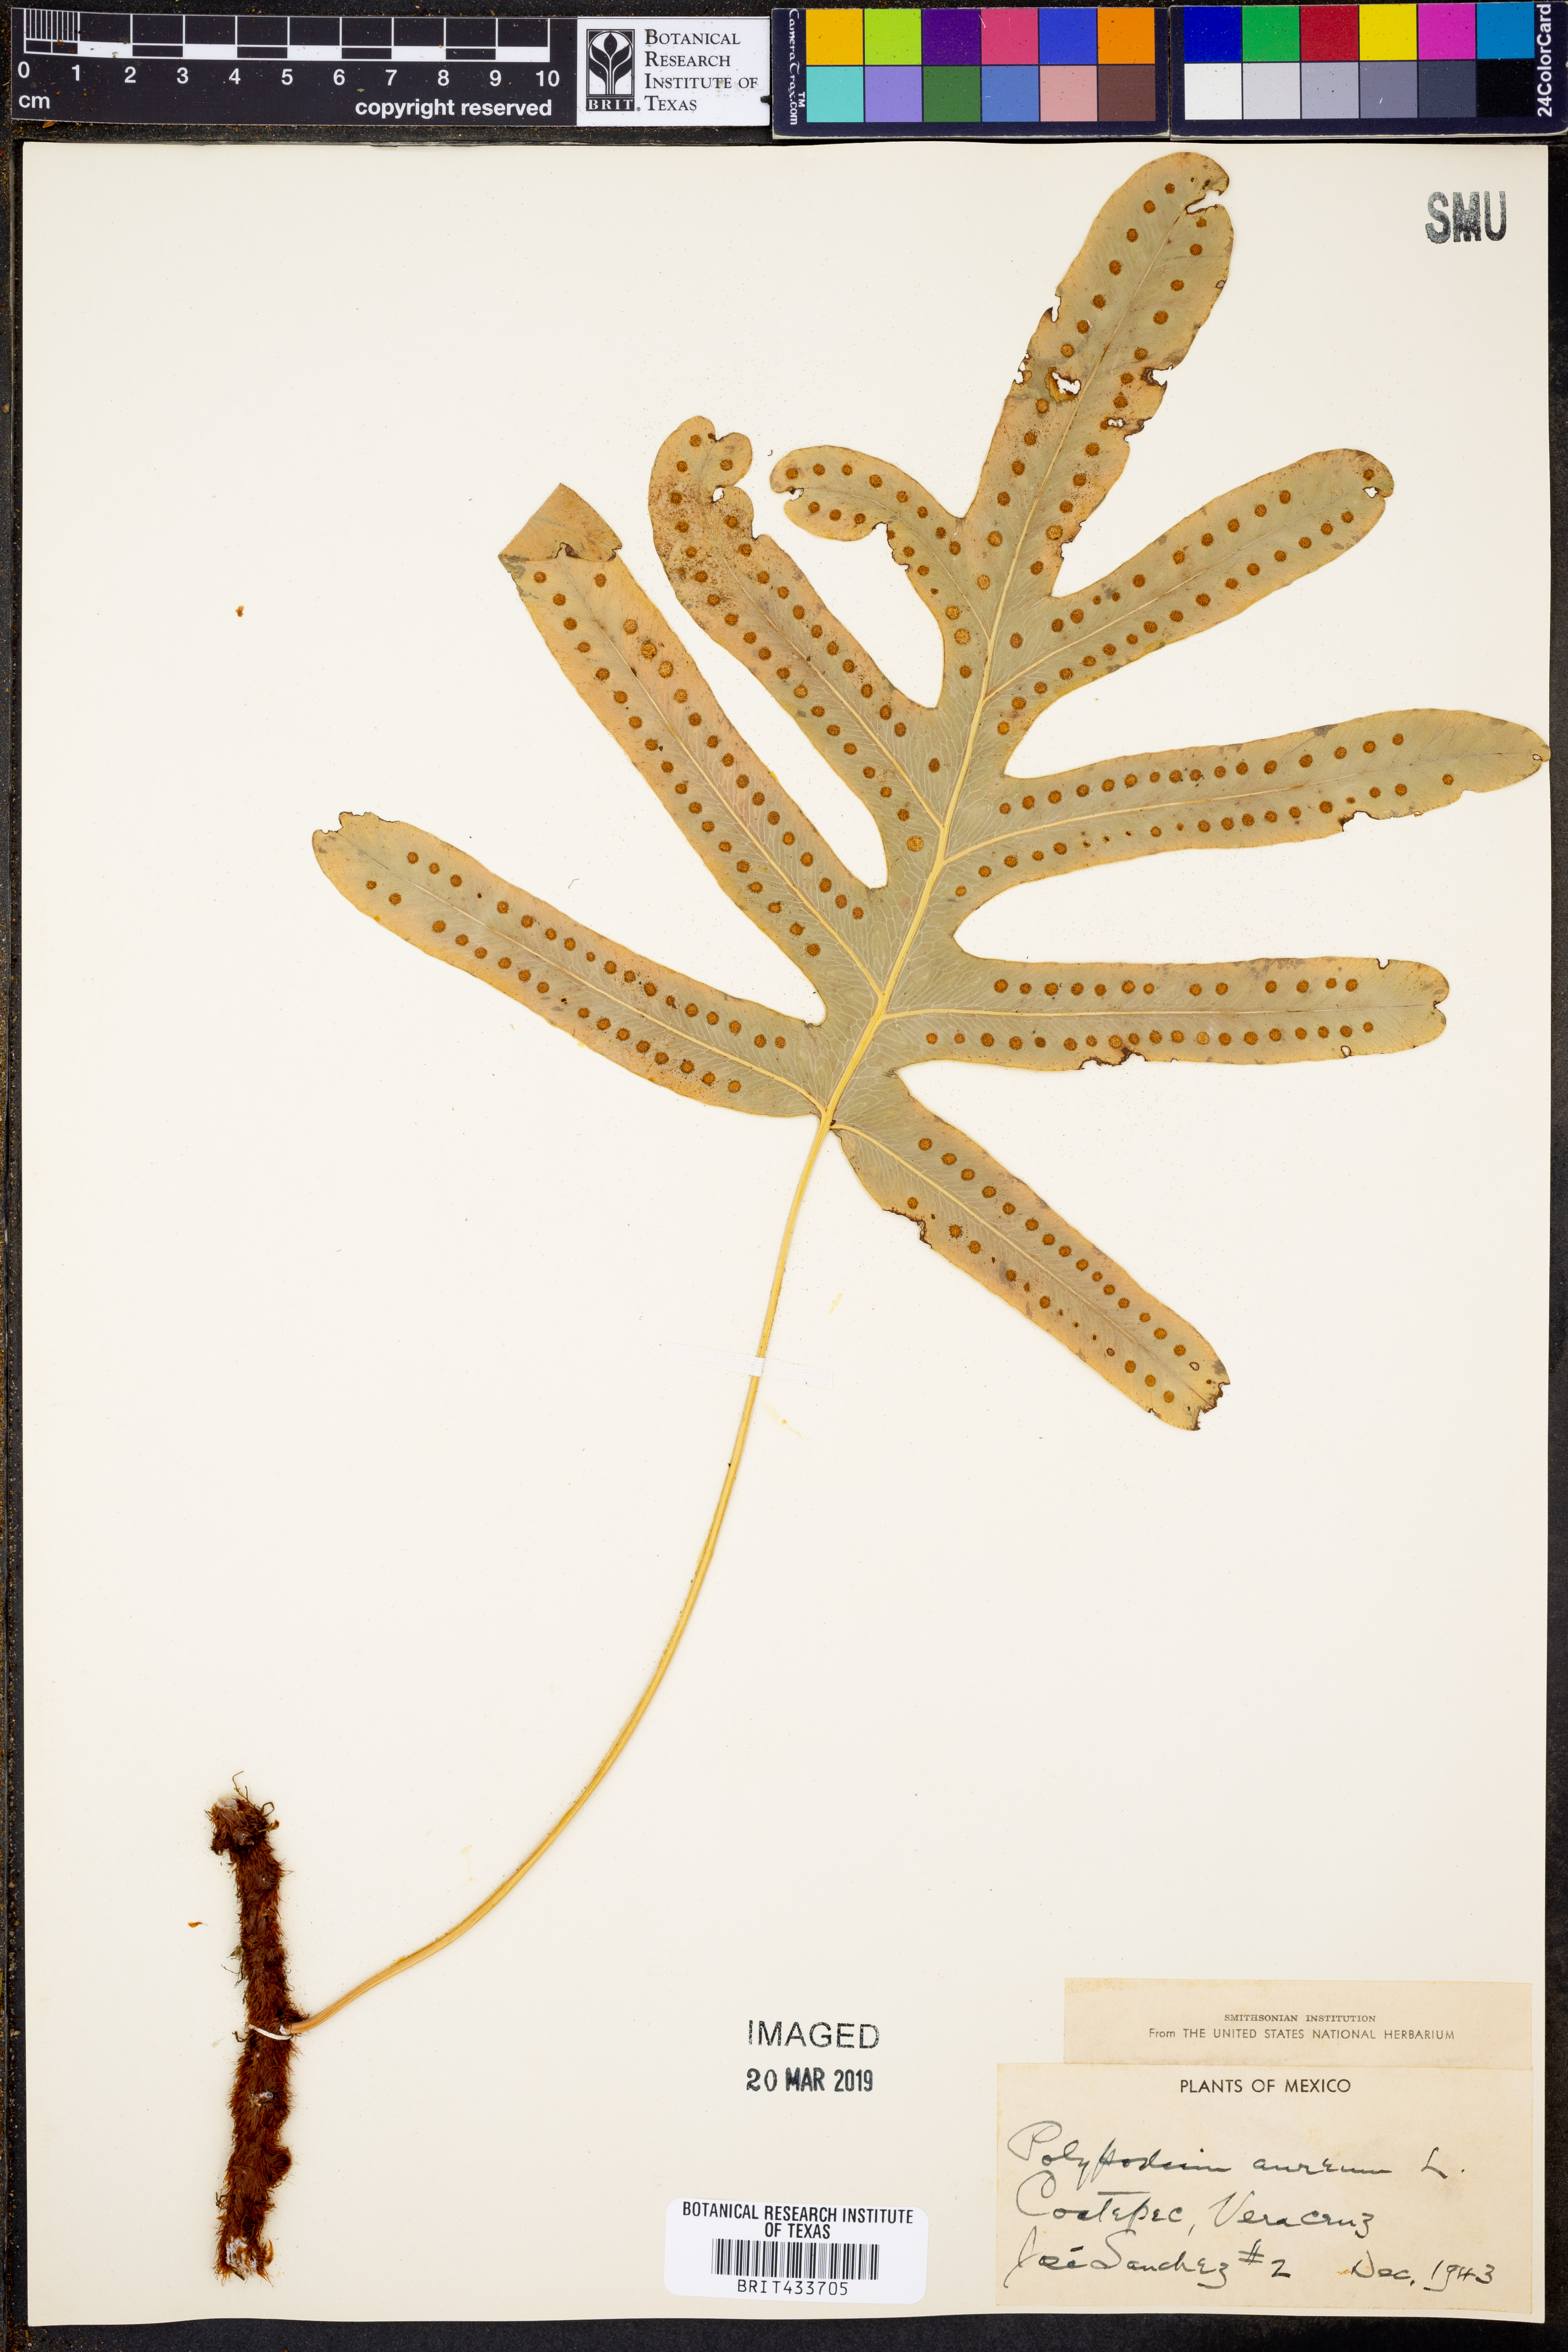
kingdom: Plantae
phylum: Tracheophyta
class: Polypodiopsida
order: Polypodiales
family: Polypodiaceae
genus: Phlebodium
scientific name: Phlebodium aureum
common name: Gold-foot fern
